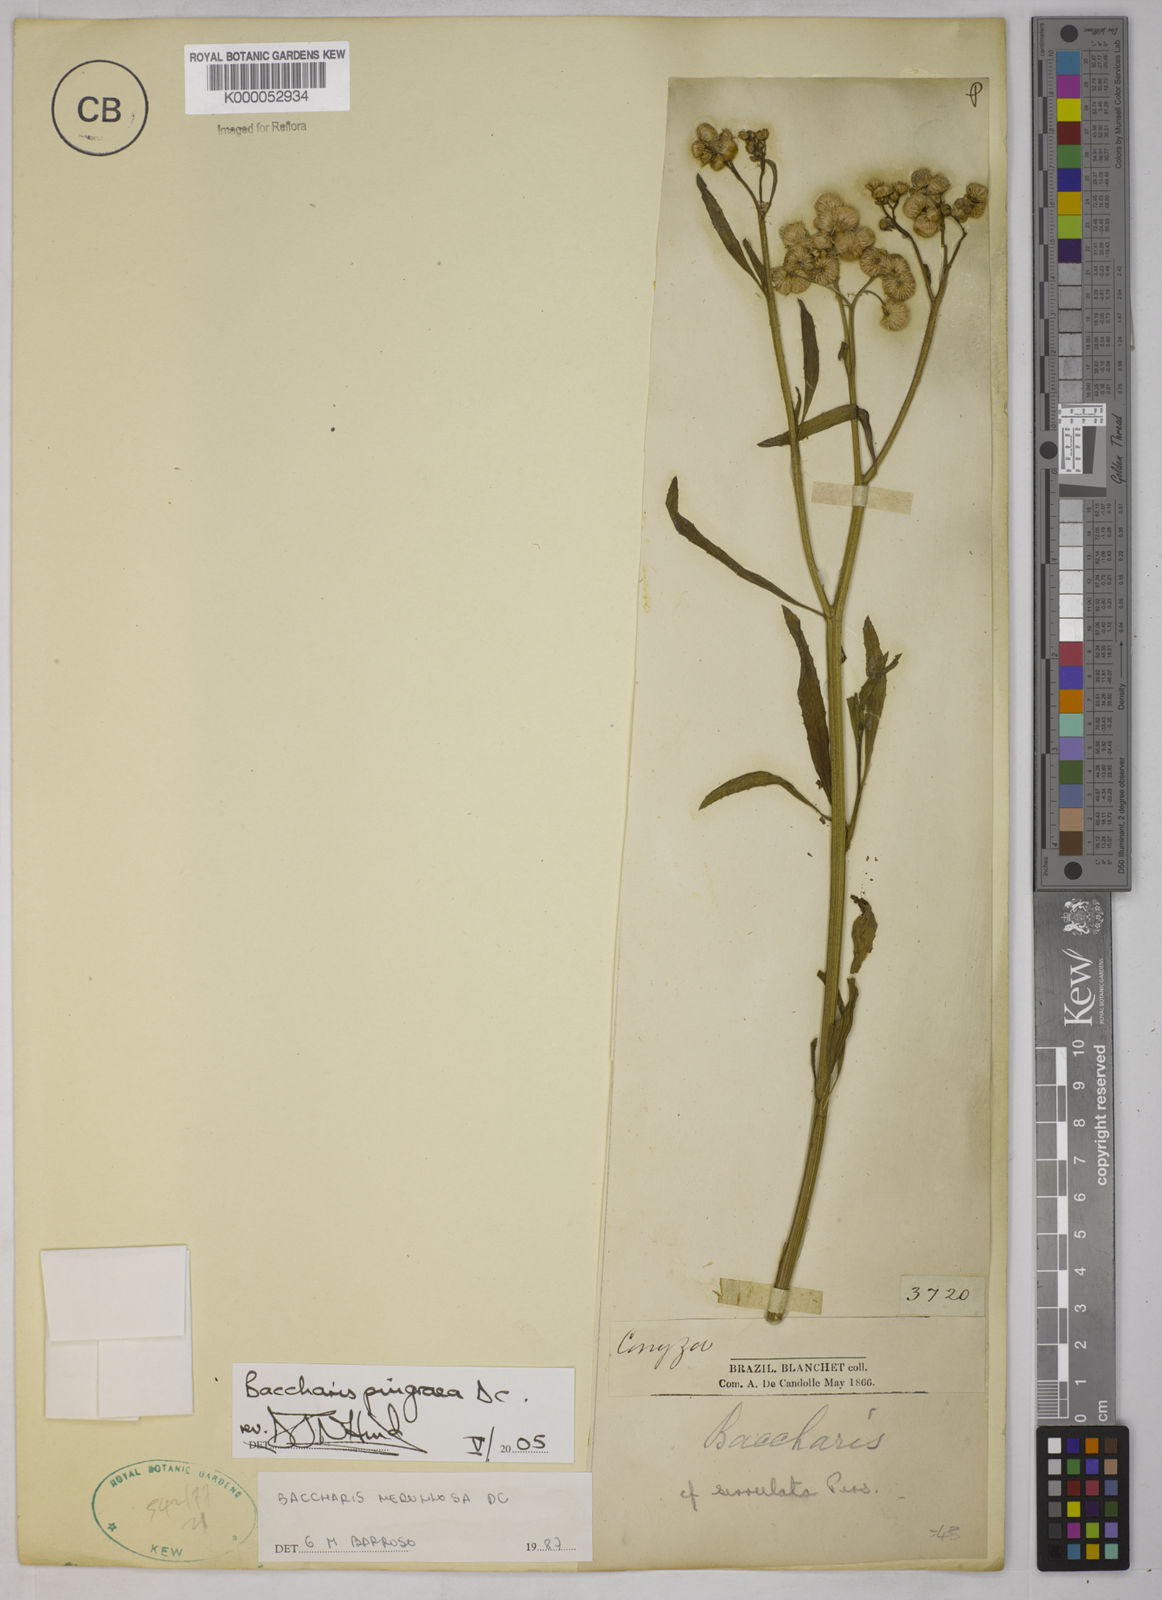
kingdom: Plantae
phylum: Tracheophyta
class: Magnoliopsida
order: Asterales
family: Asteraceae
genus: Baccharis
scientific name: Baccharis glutinosa
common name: Saltmarsh baccharis
